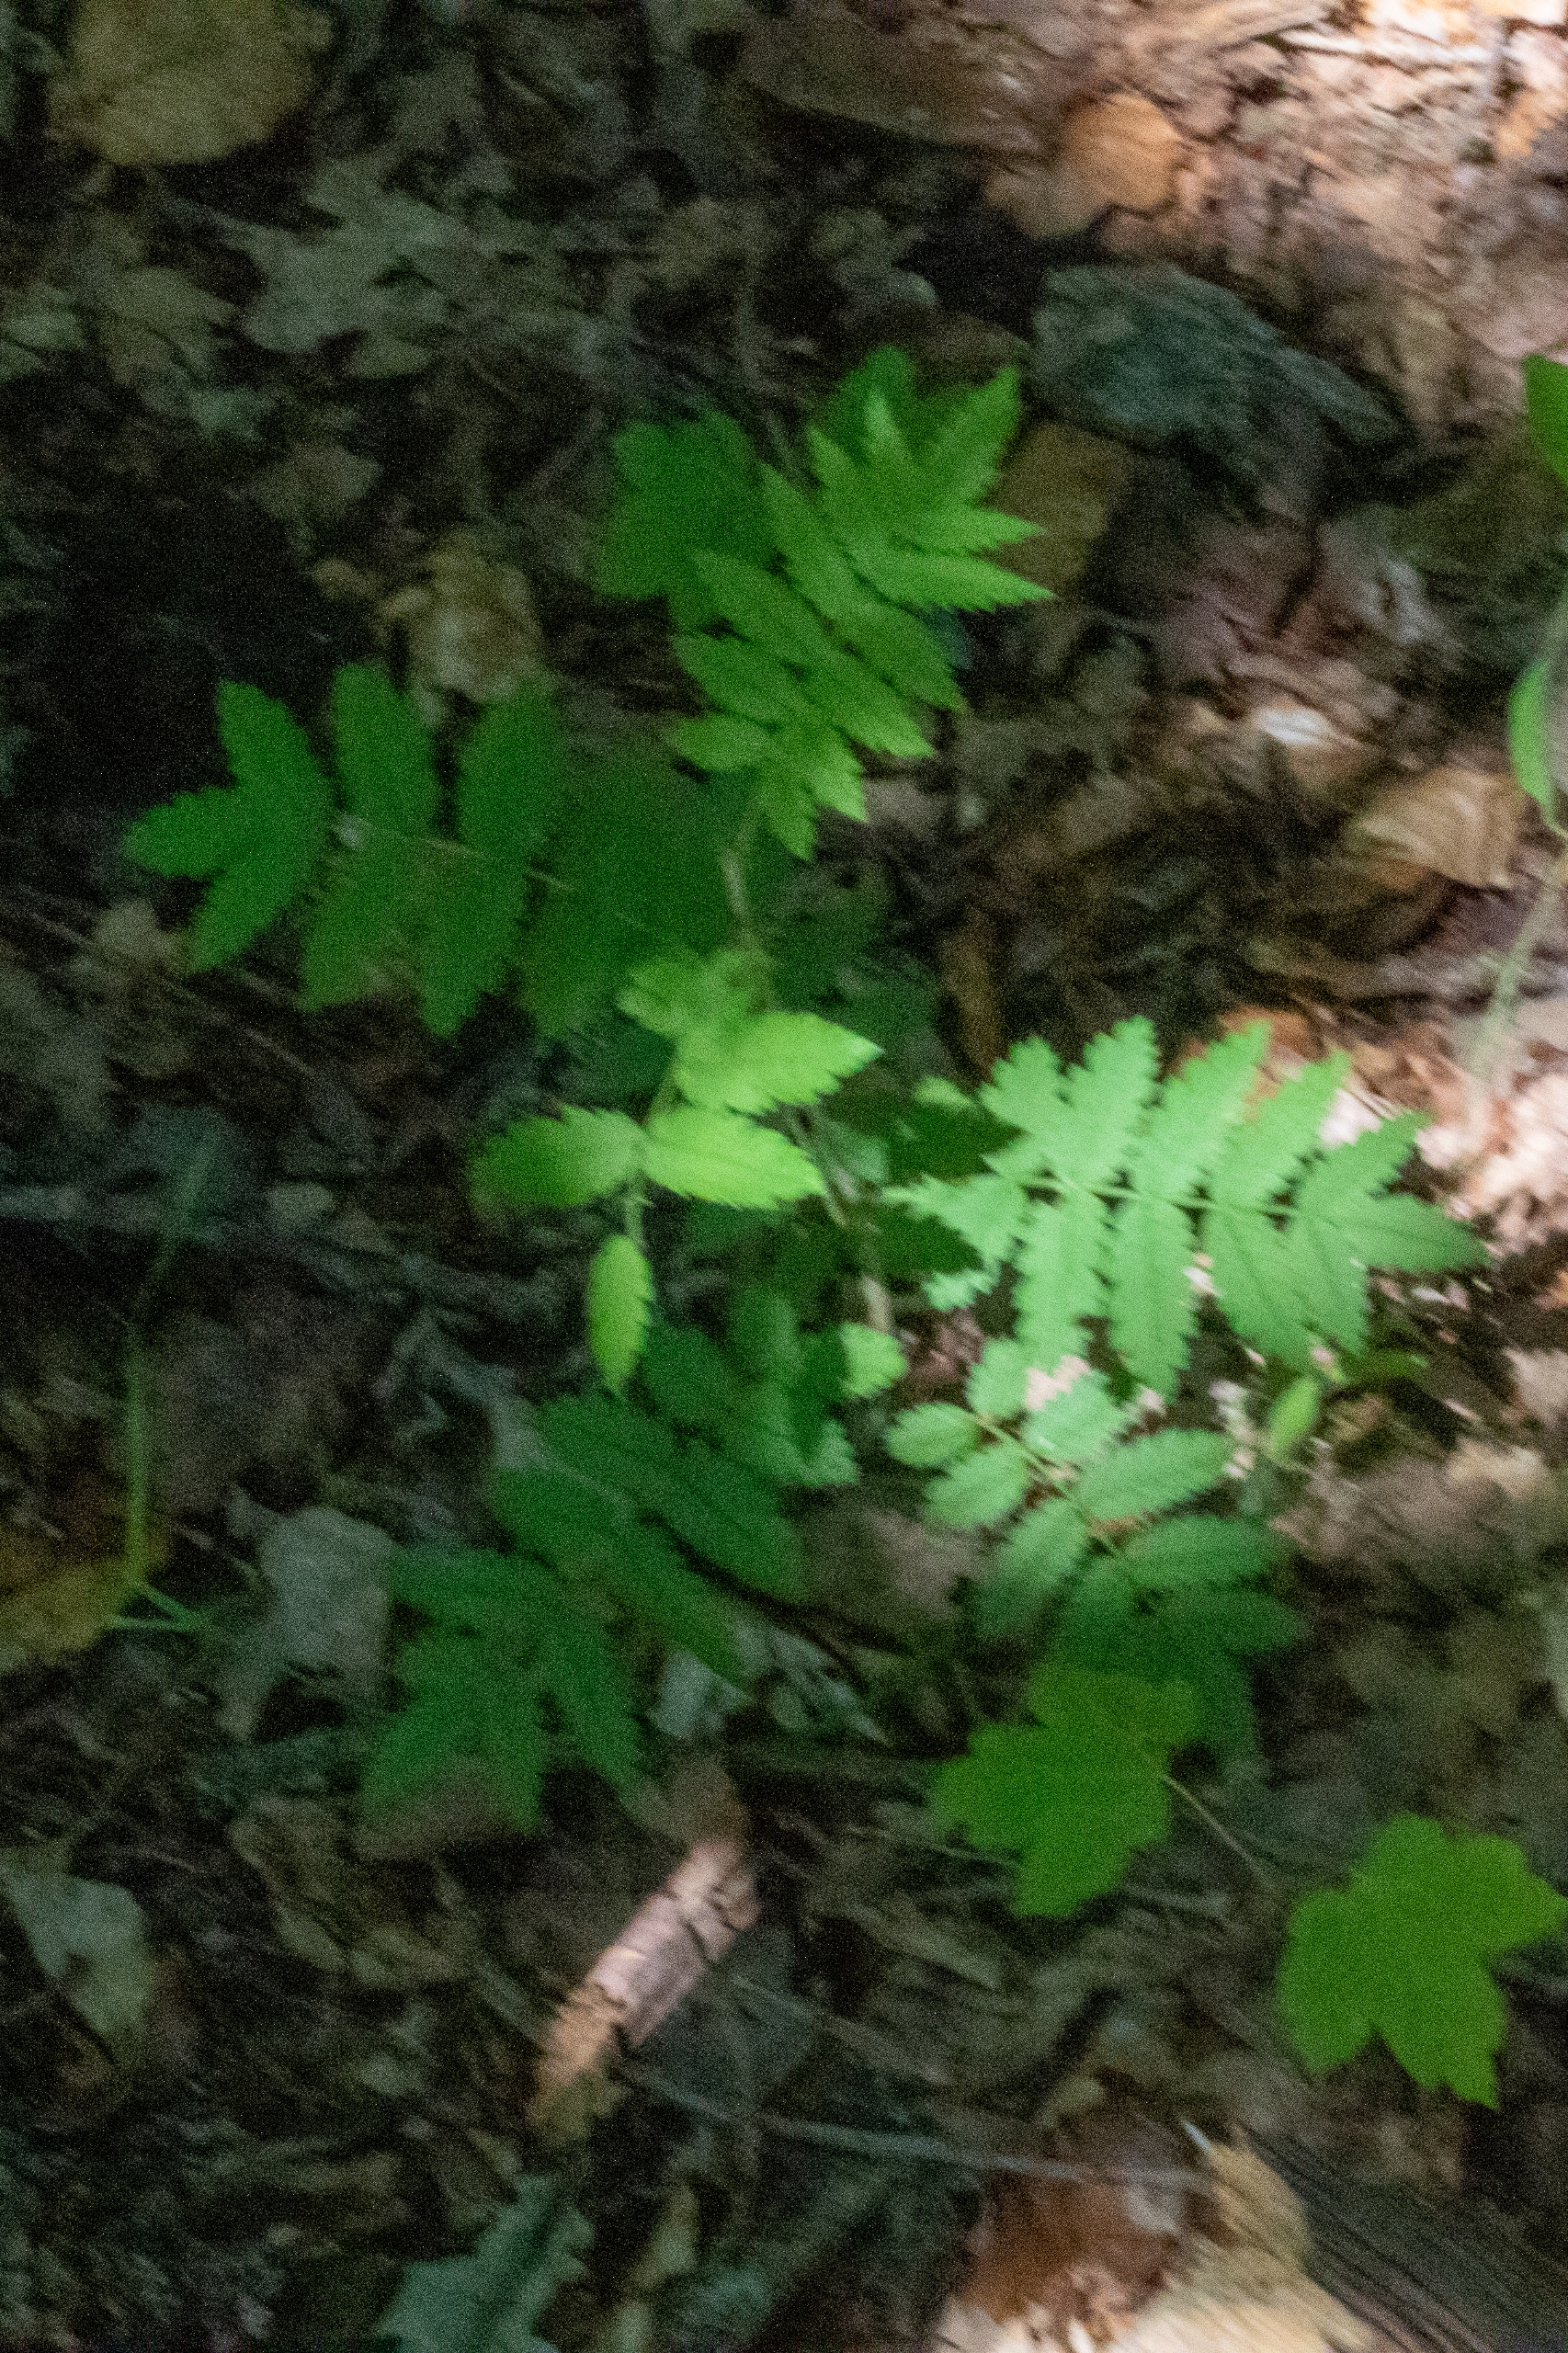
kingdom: Plantae
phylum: Tracheophyta
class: Magnoliopsida
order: Rosales
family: Rosaceae
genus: Sorbus
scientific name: Sorbus aucuparia
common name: Almindelig røn
